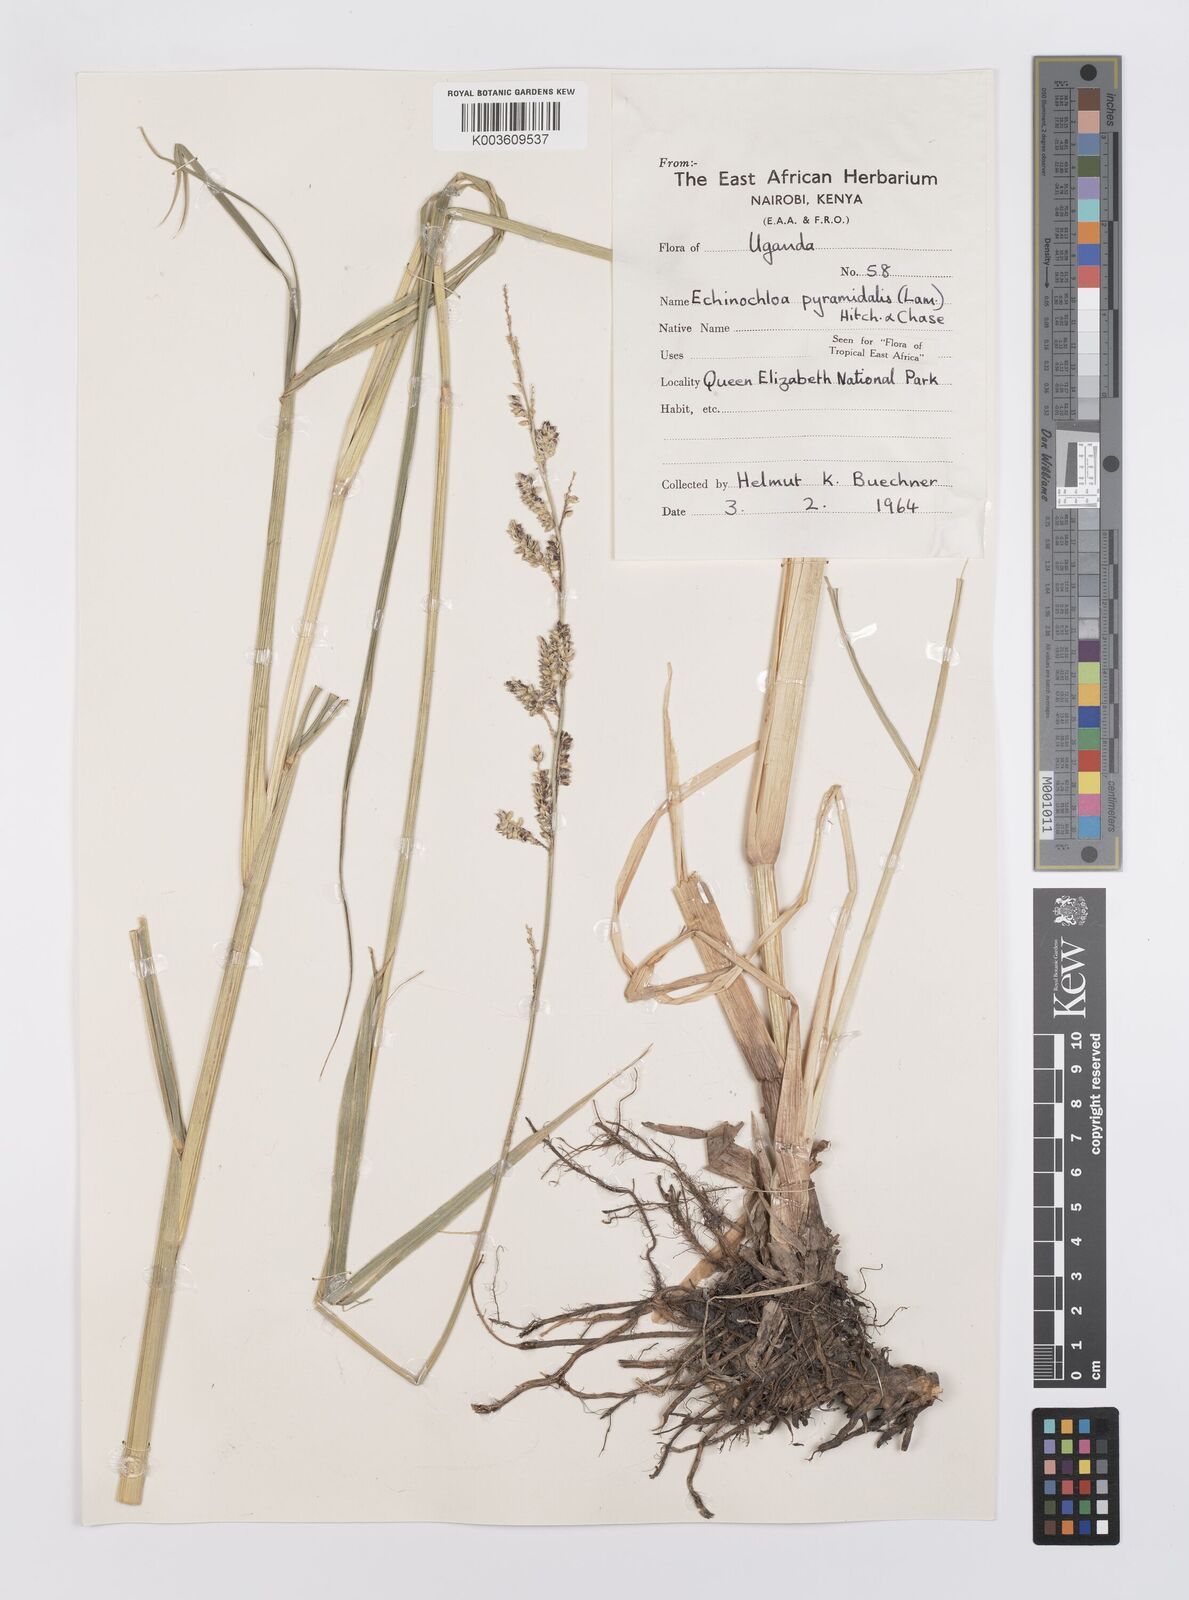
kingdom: Plantae
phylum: Tracheophyta
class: Liliopsida
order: Poales
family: Poaceae
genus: Echinochloa
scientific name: Echinochloa pyramidalis
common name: Antelope grass
